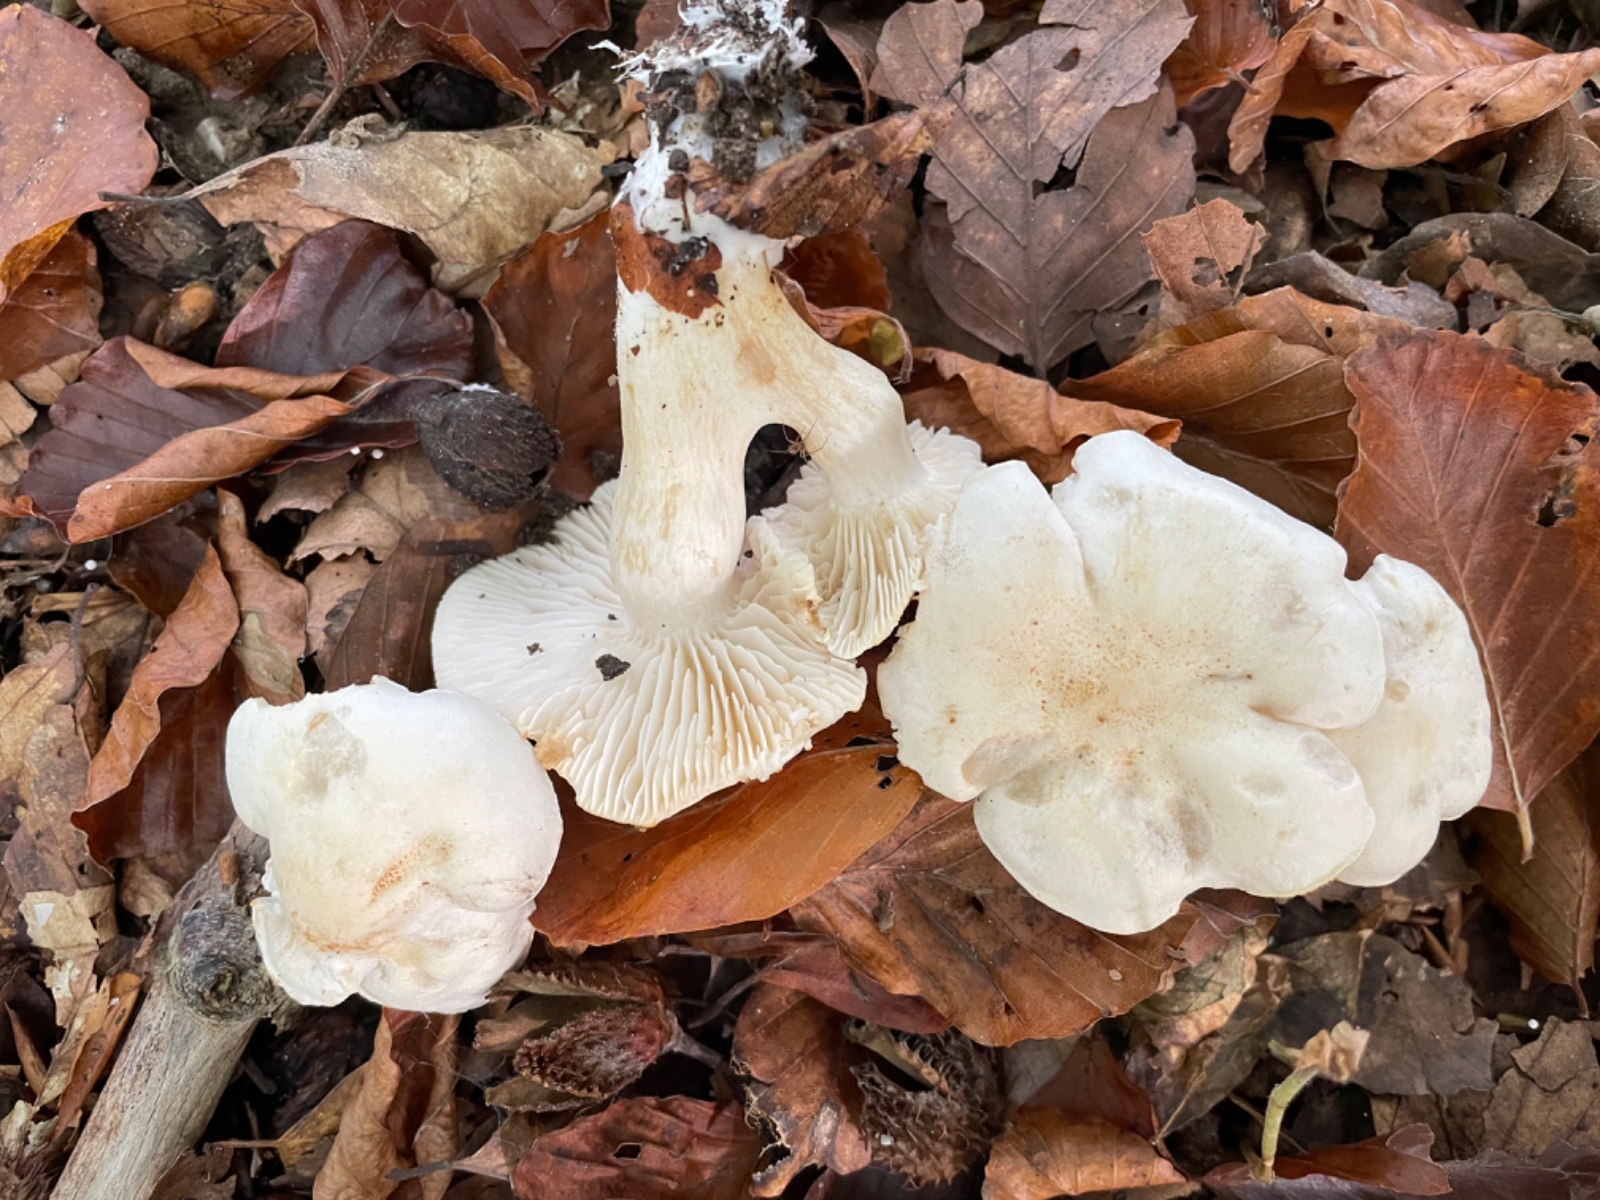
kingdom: Fungi
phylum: Basidiomycota
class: Agaricomycetes
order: Agaricales
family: Tricholomataceae
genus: Tricholoma
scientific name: Tricholoma lascivum
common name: stinkende ridderhat
